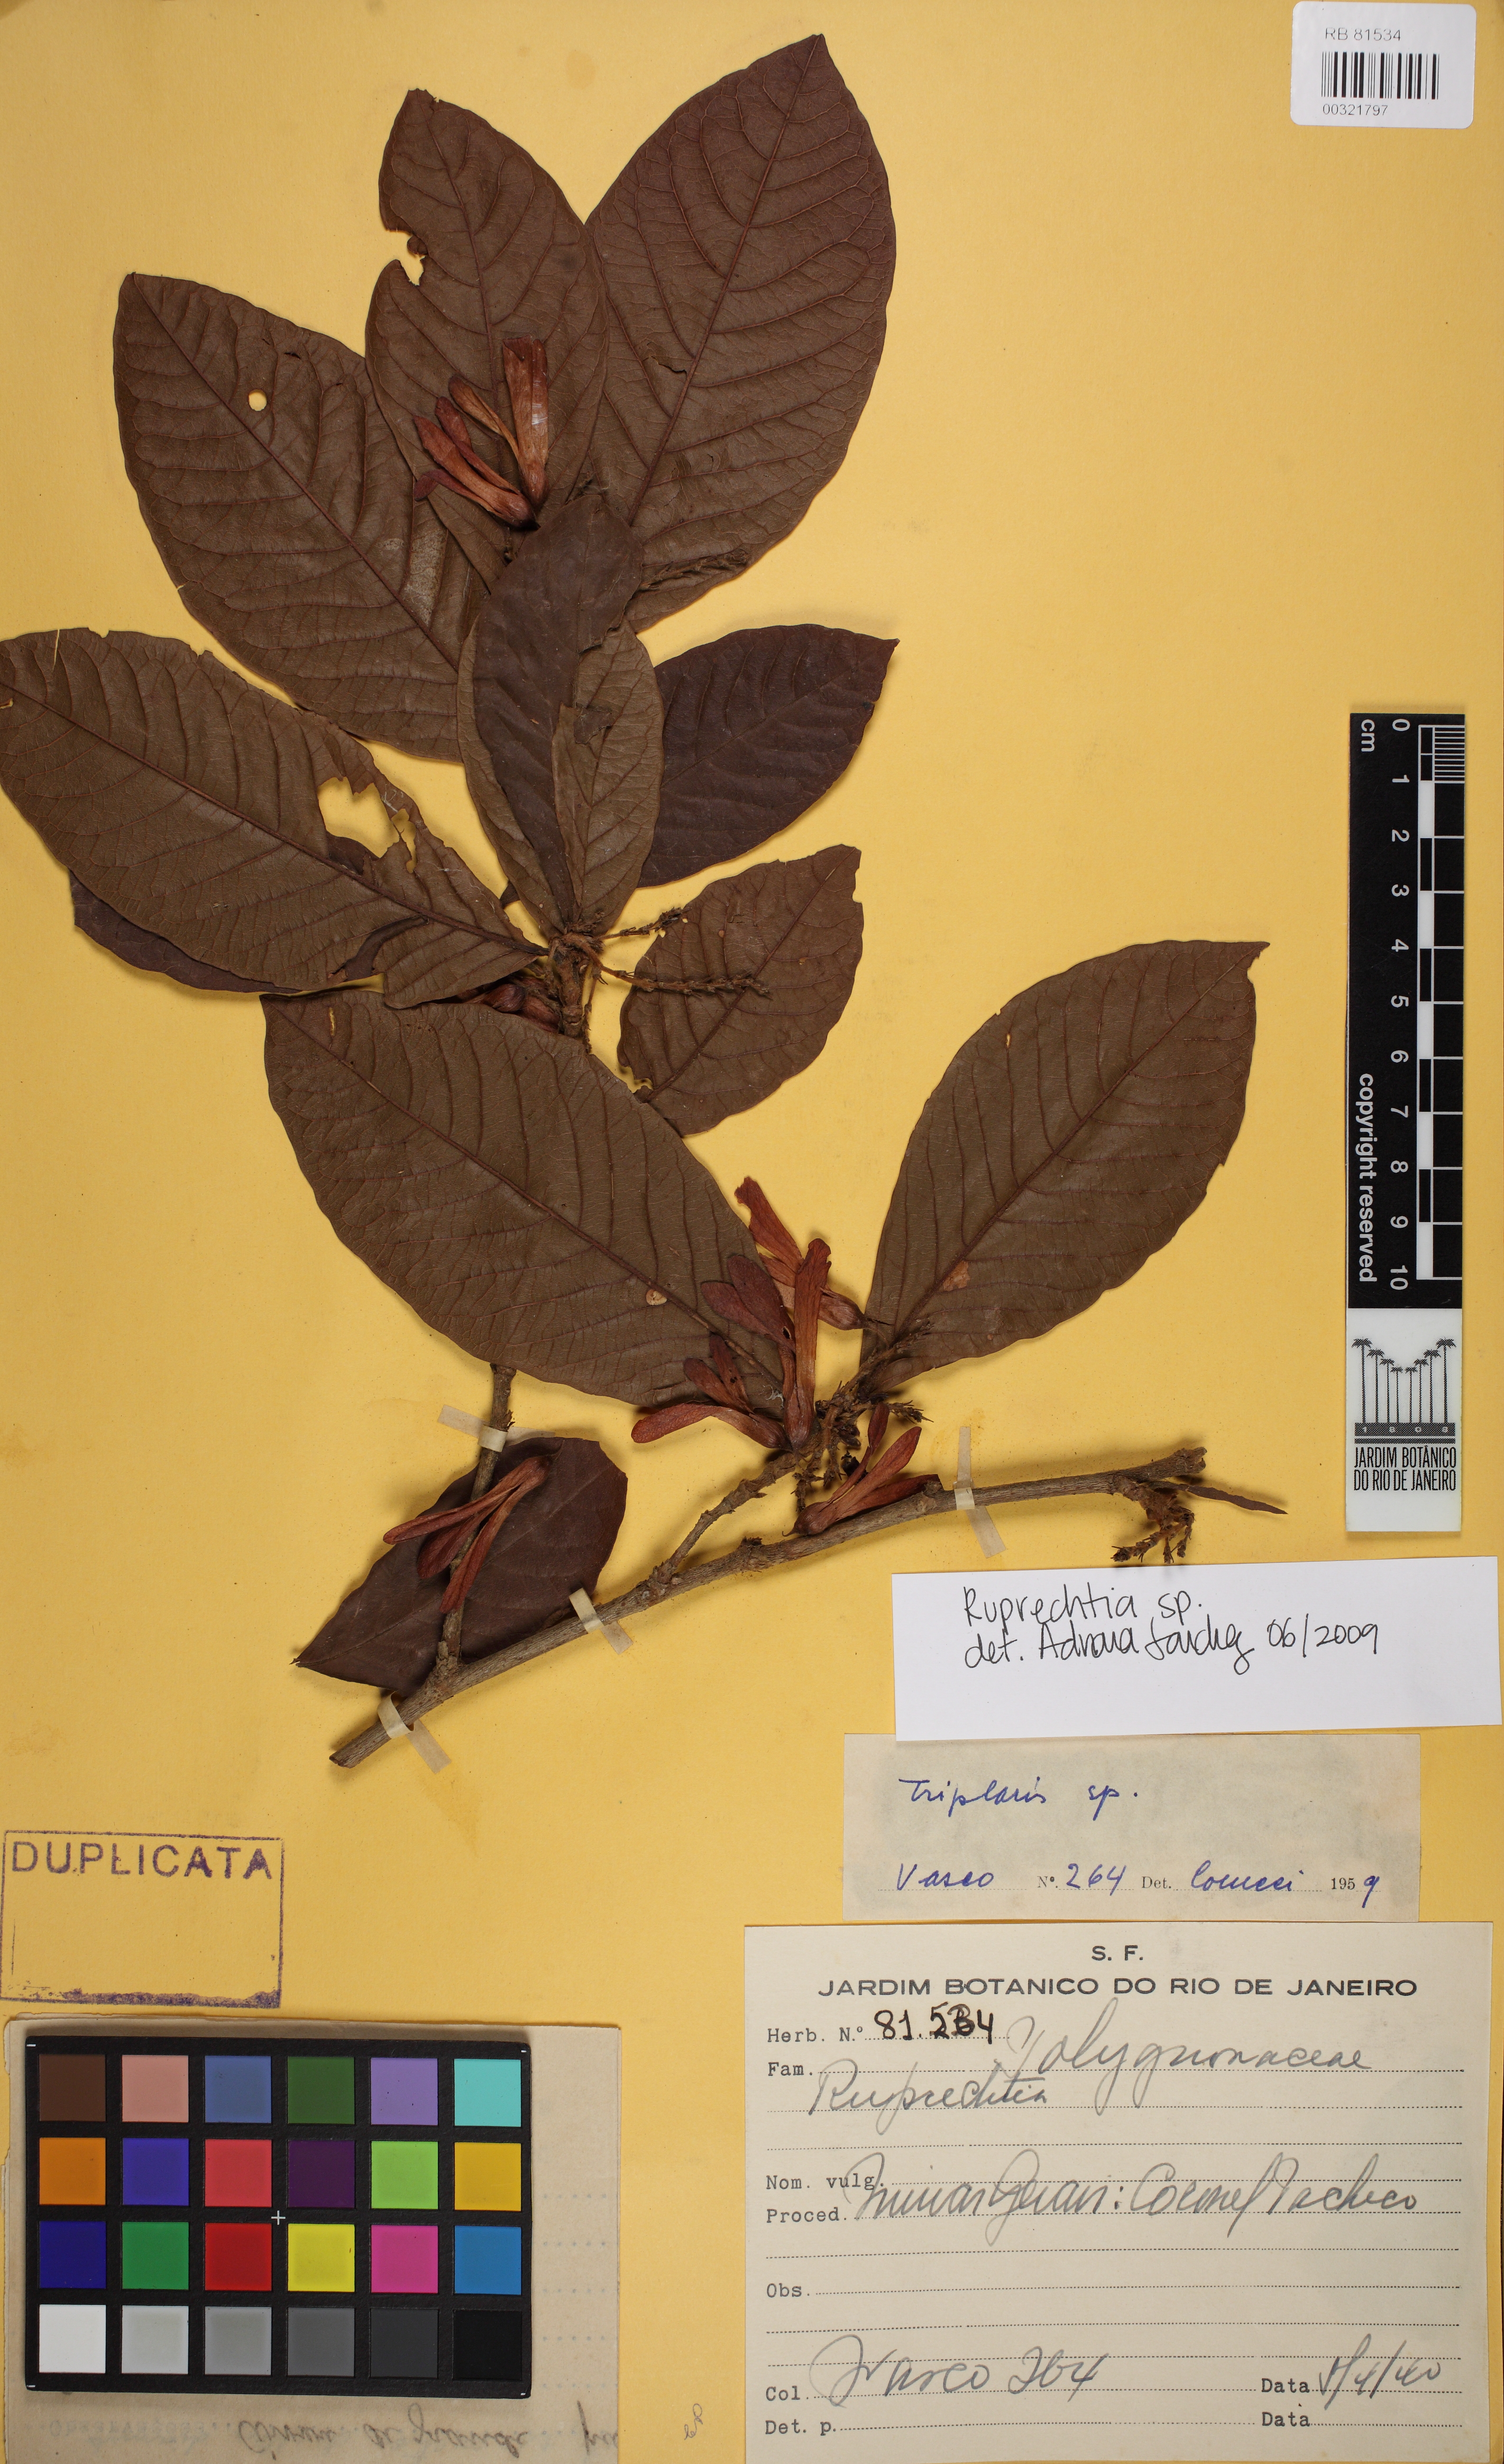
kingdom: Plantae
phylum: Tracheophyta
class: Magnoliopsida
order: Caryophyllales
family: Polygonaceae
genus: Ruprechtia
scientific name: Ruprechtia
